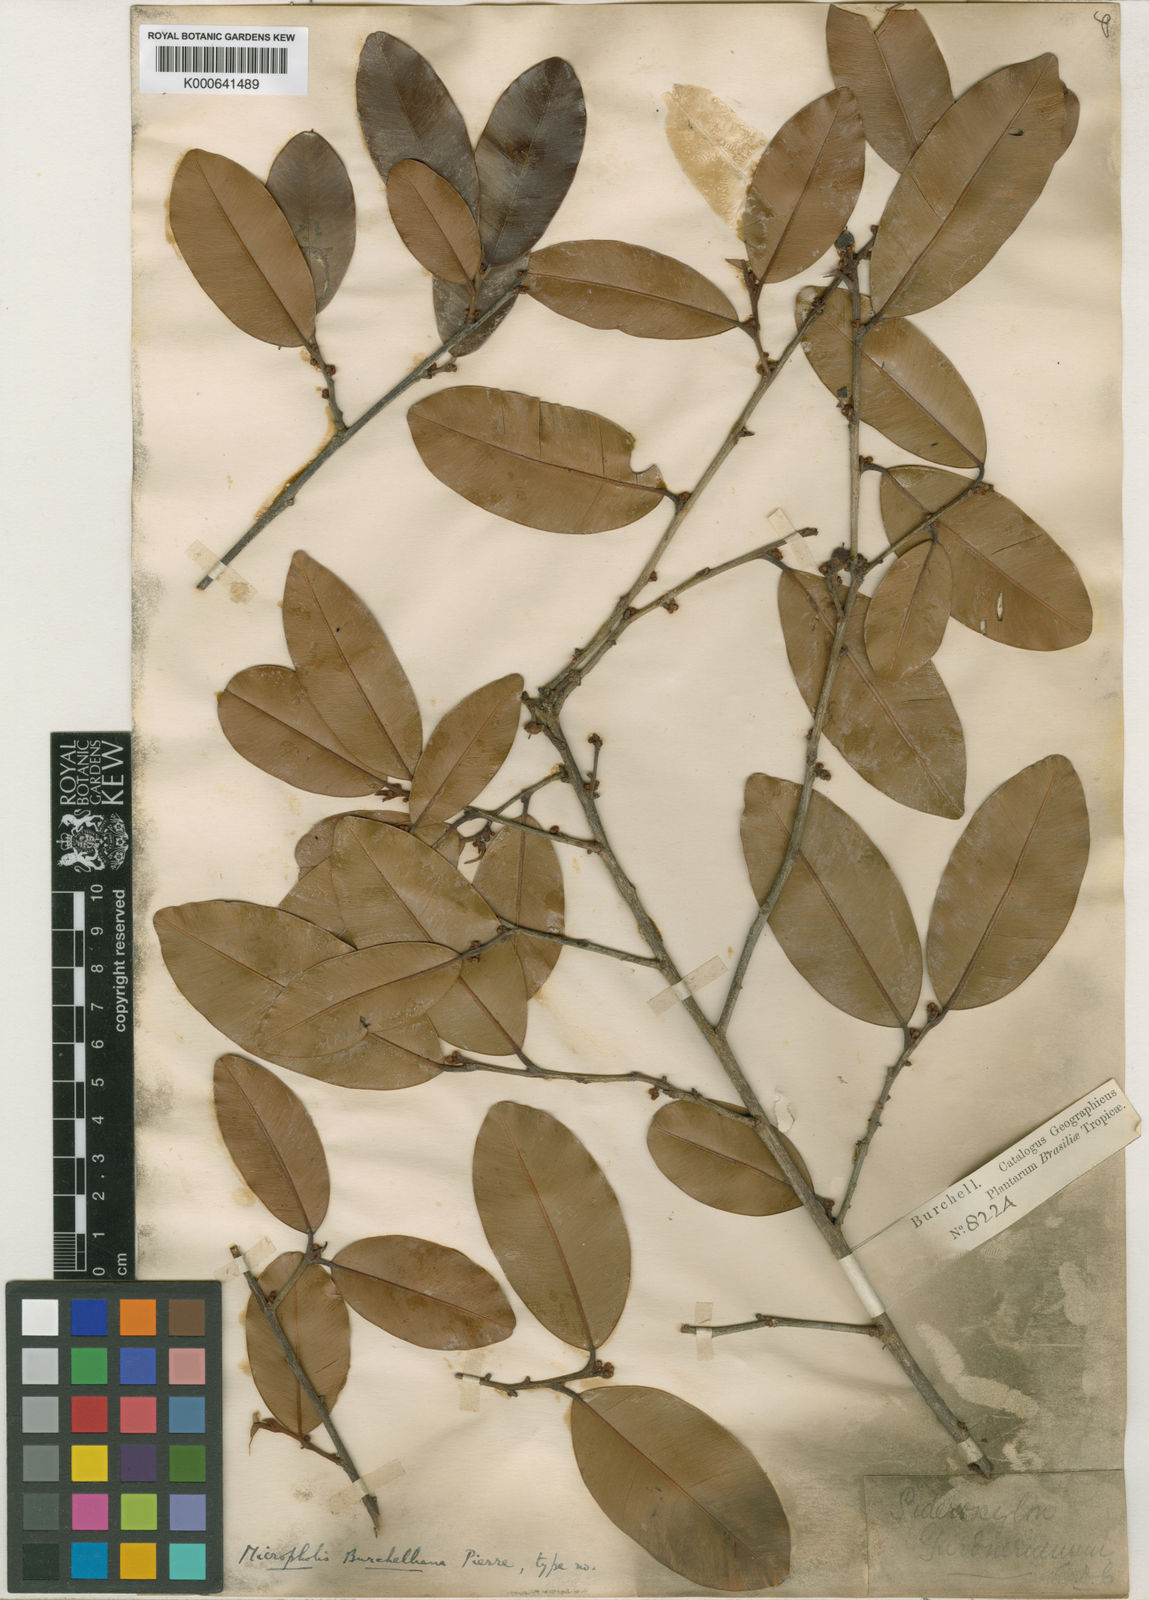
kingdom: Plantae
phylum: Tracheophyta
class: Magnoliopsida
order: Ericales
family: Sapotaceae
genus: Micropholis
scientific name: Micropholis gardneriana
